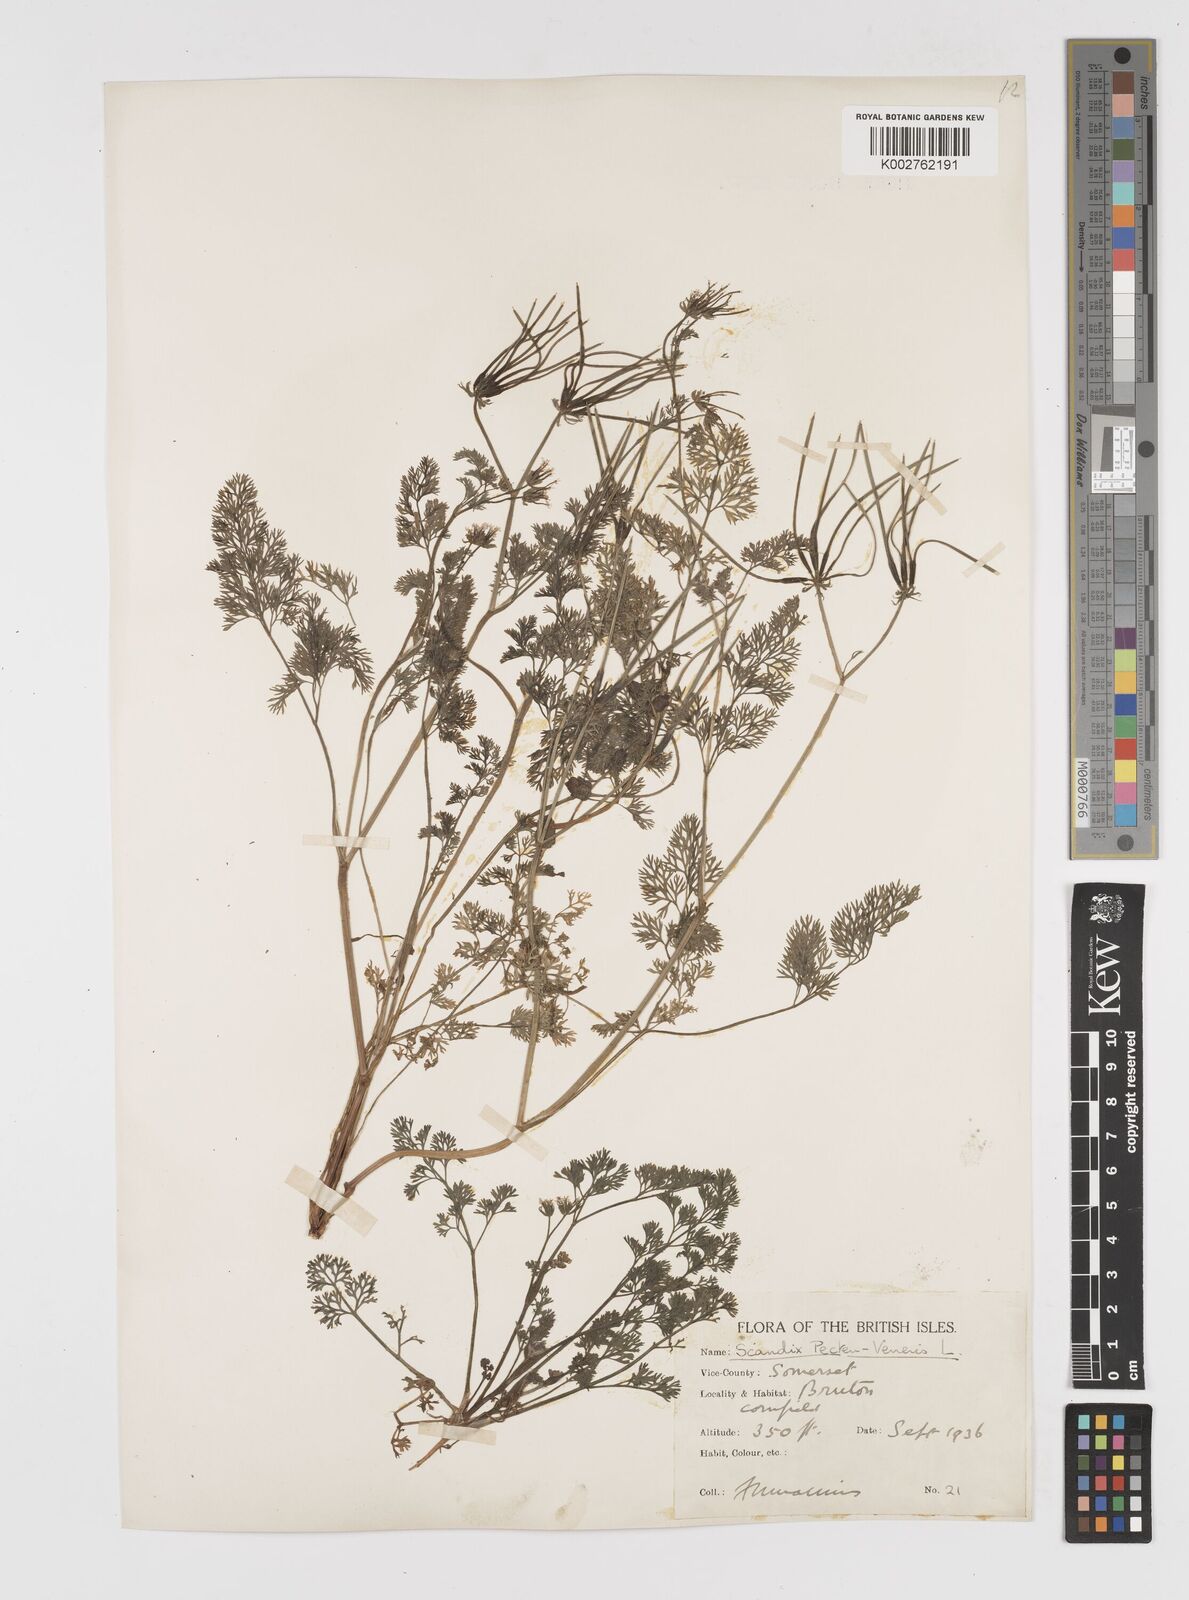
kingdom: Plantae
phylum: Tracheophyta
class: Magnoliopsida
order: Apiales
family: Apiaceae
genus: Scandix
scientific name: Scandix pecten-veneris
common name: Shepherd's-needle
